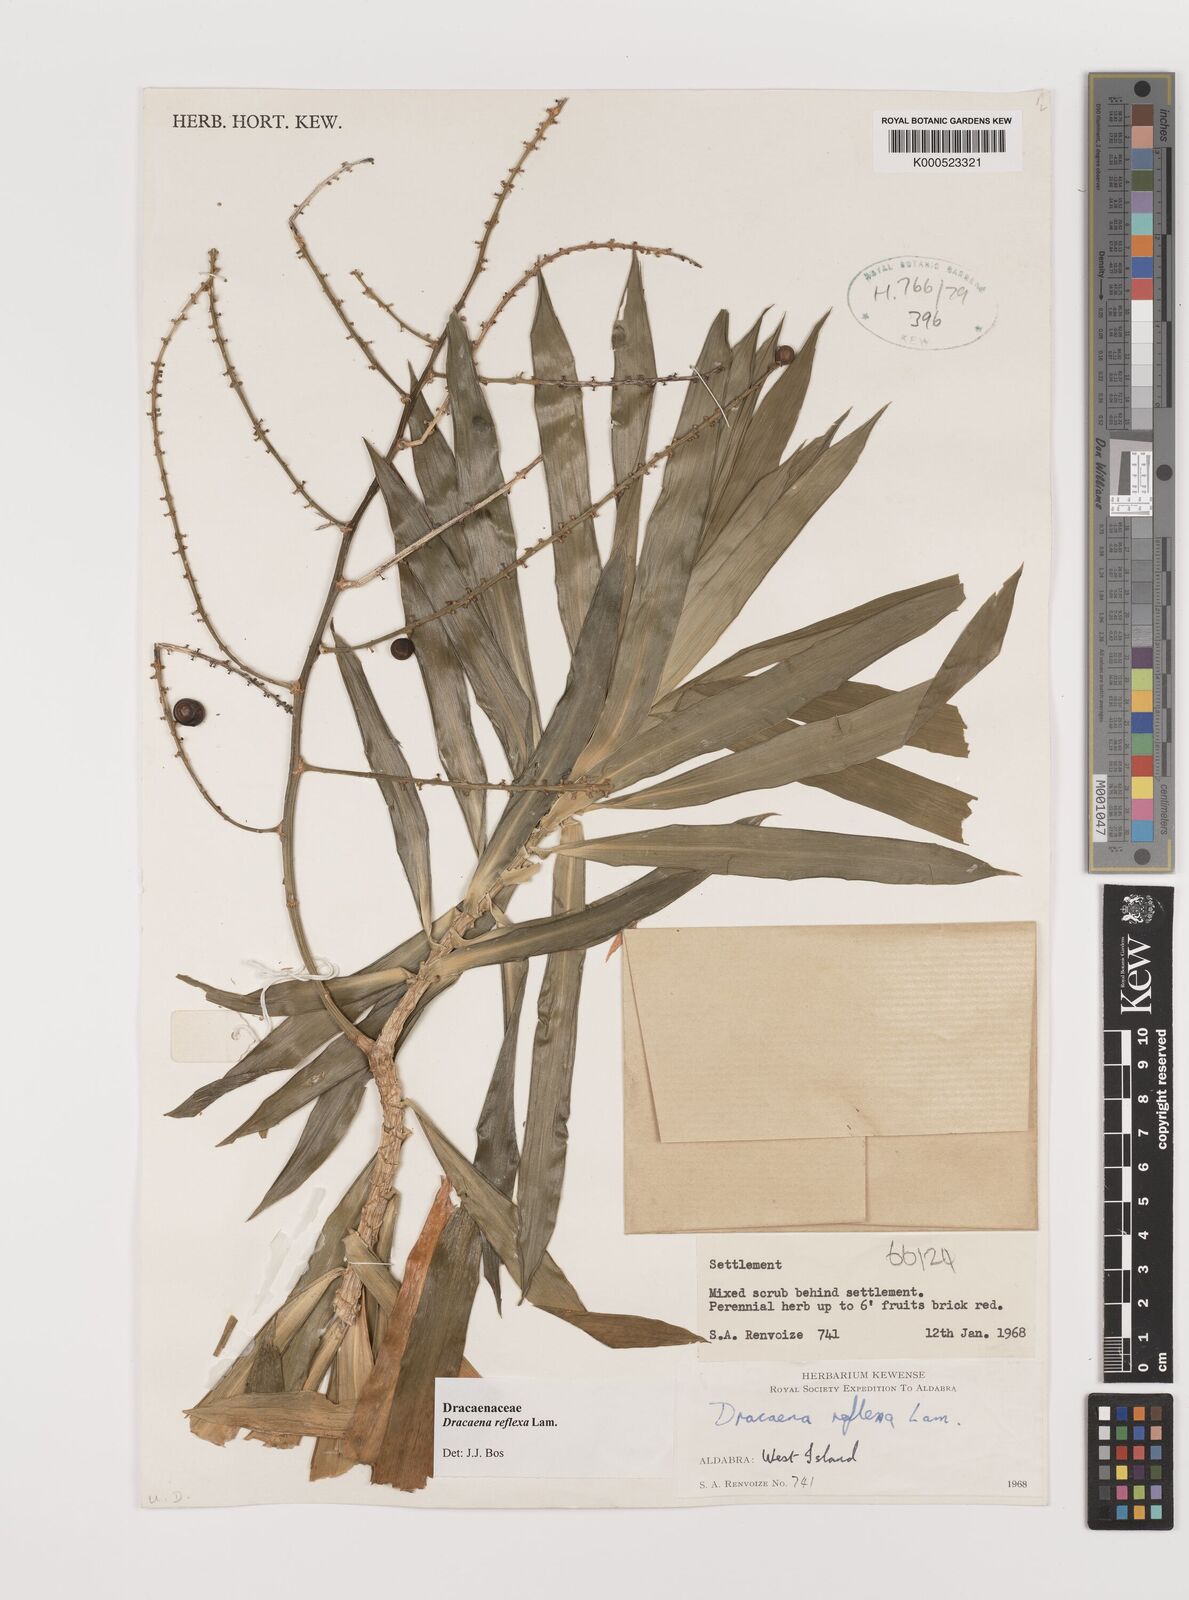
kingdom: Plantae
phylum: Tracheophyta
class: Liliopsida
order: Asparagales
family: Asparagaceae
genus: Dracaena
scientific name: Dracaena reflexa
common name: Song-of-india
